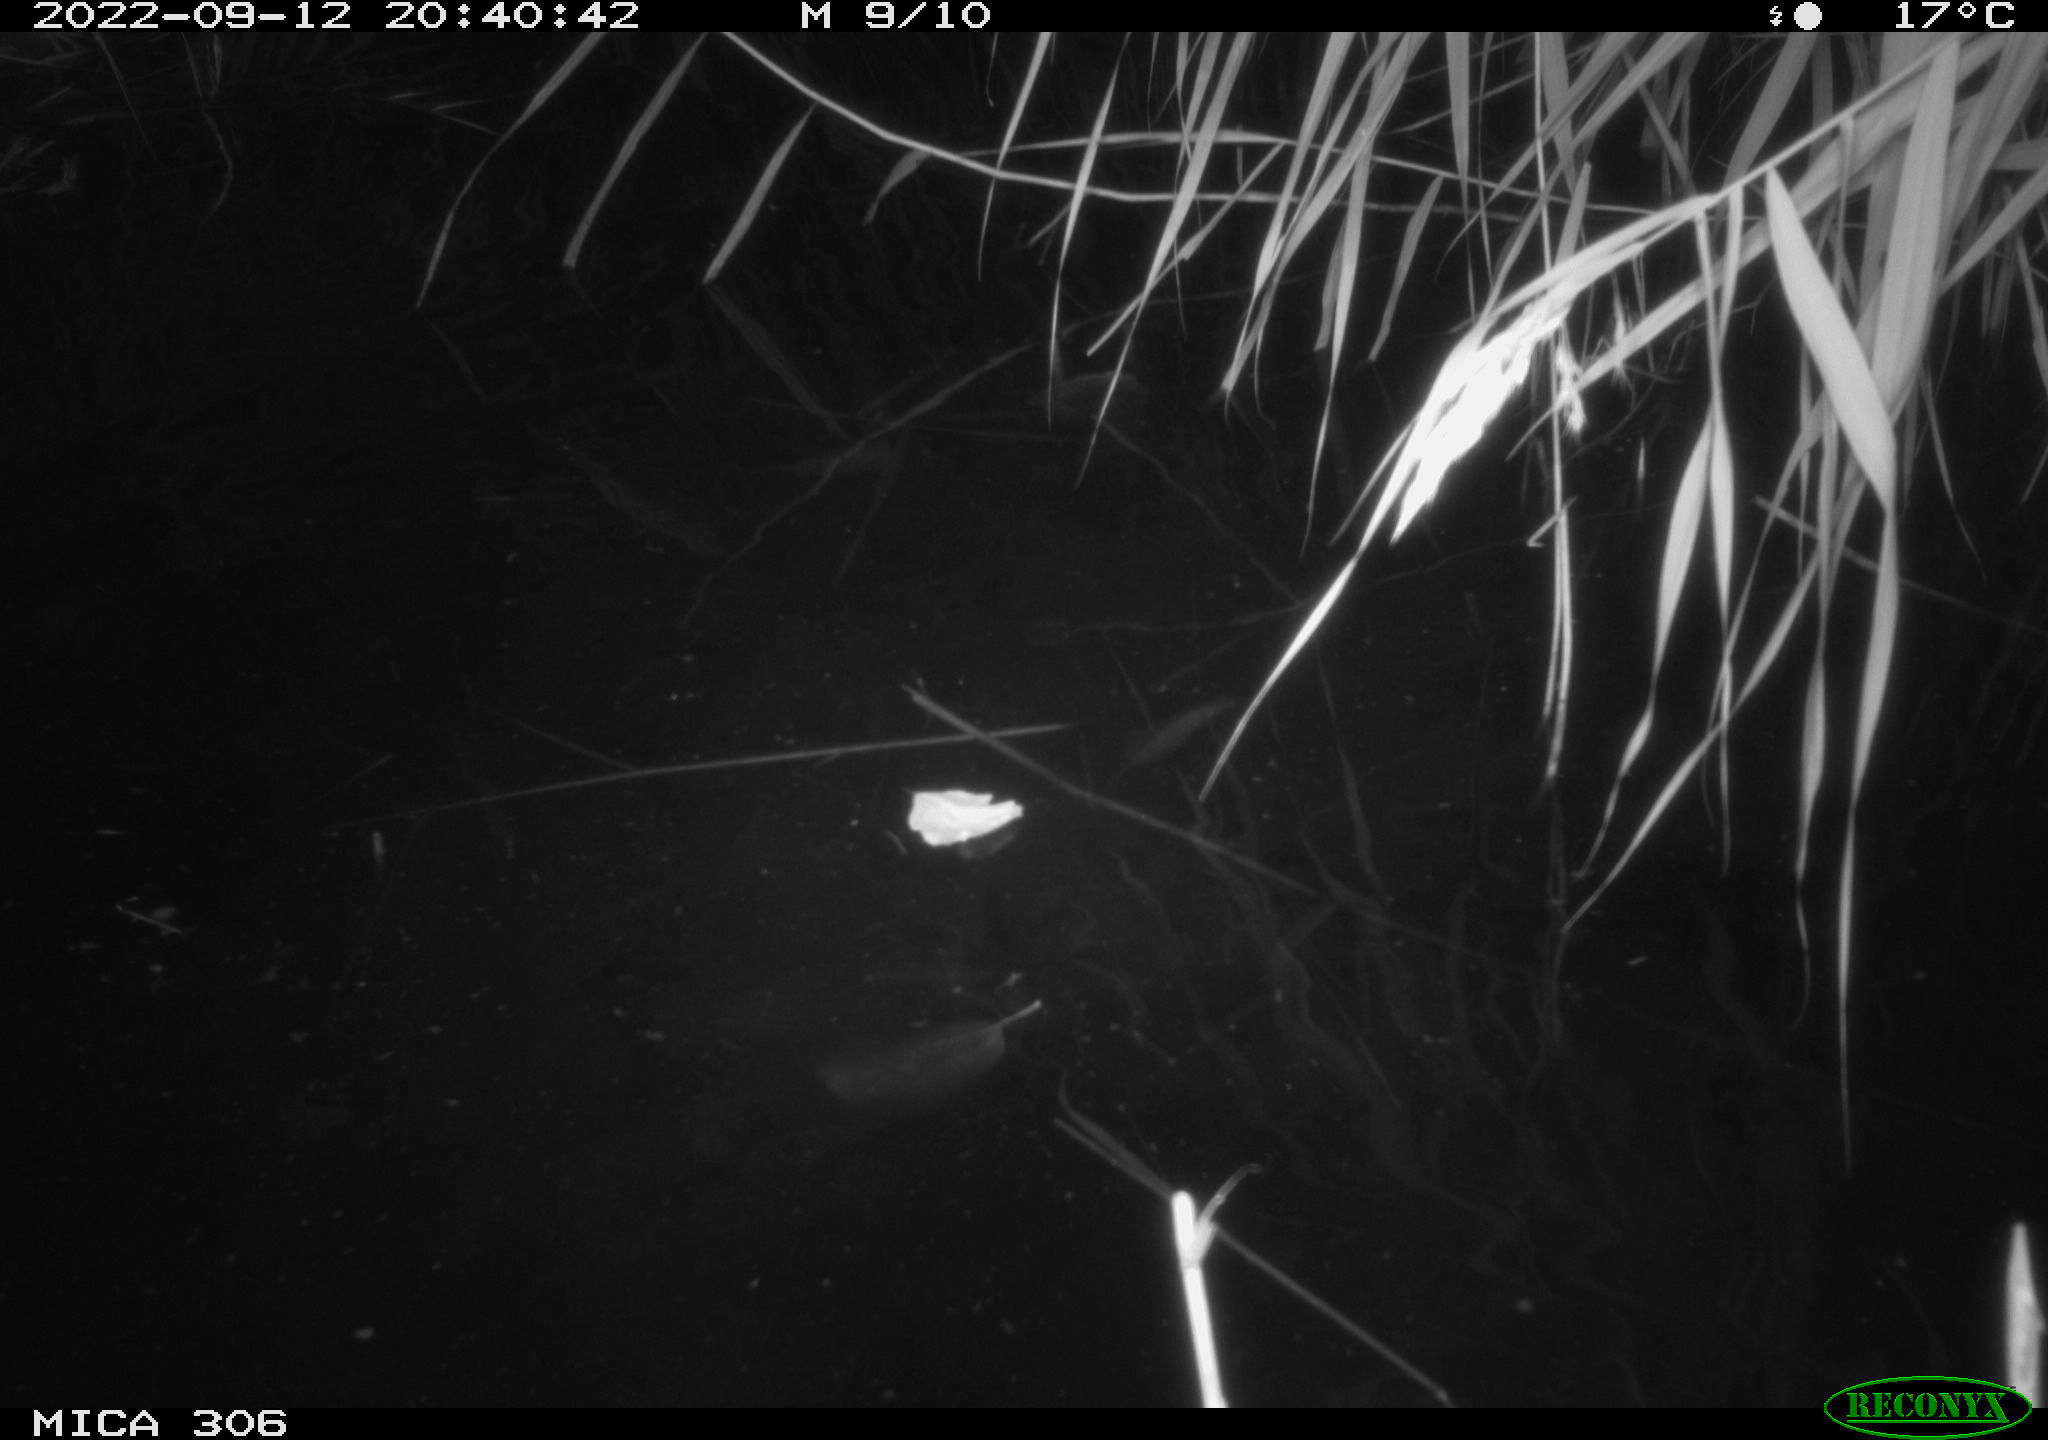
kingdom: Animalia
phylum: Chordata
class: Mammalia
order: Rodentia
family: Muridae
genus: Rattus
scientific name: Rattus norvegicus
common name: Brown rat
